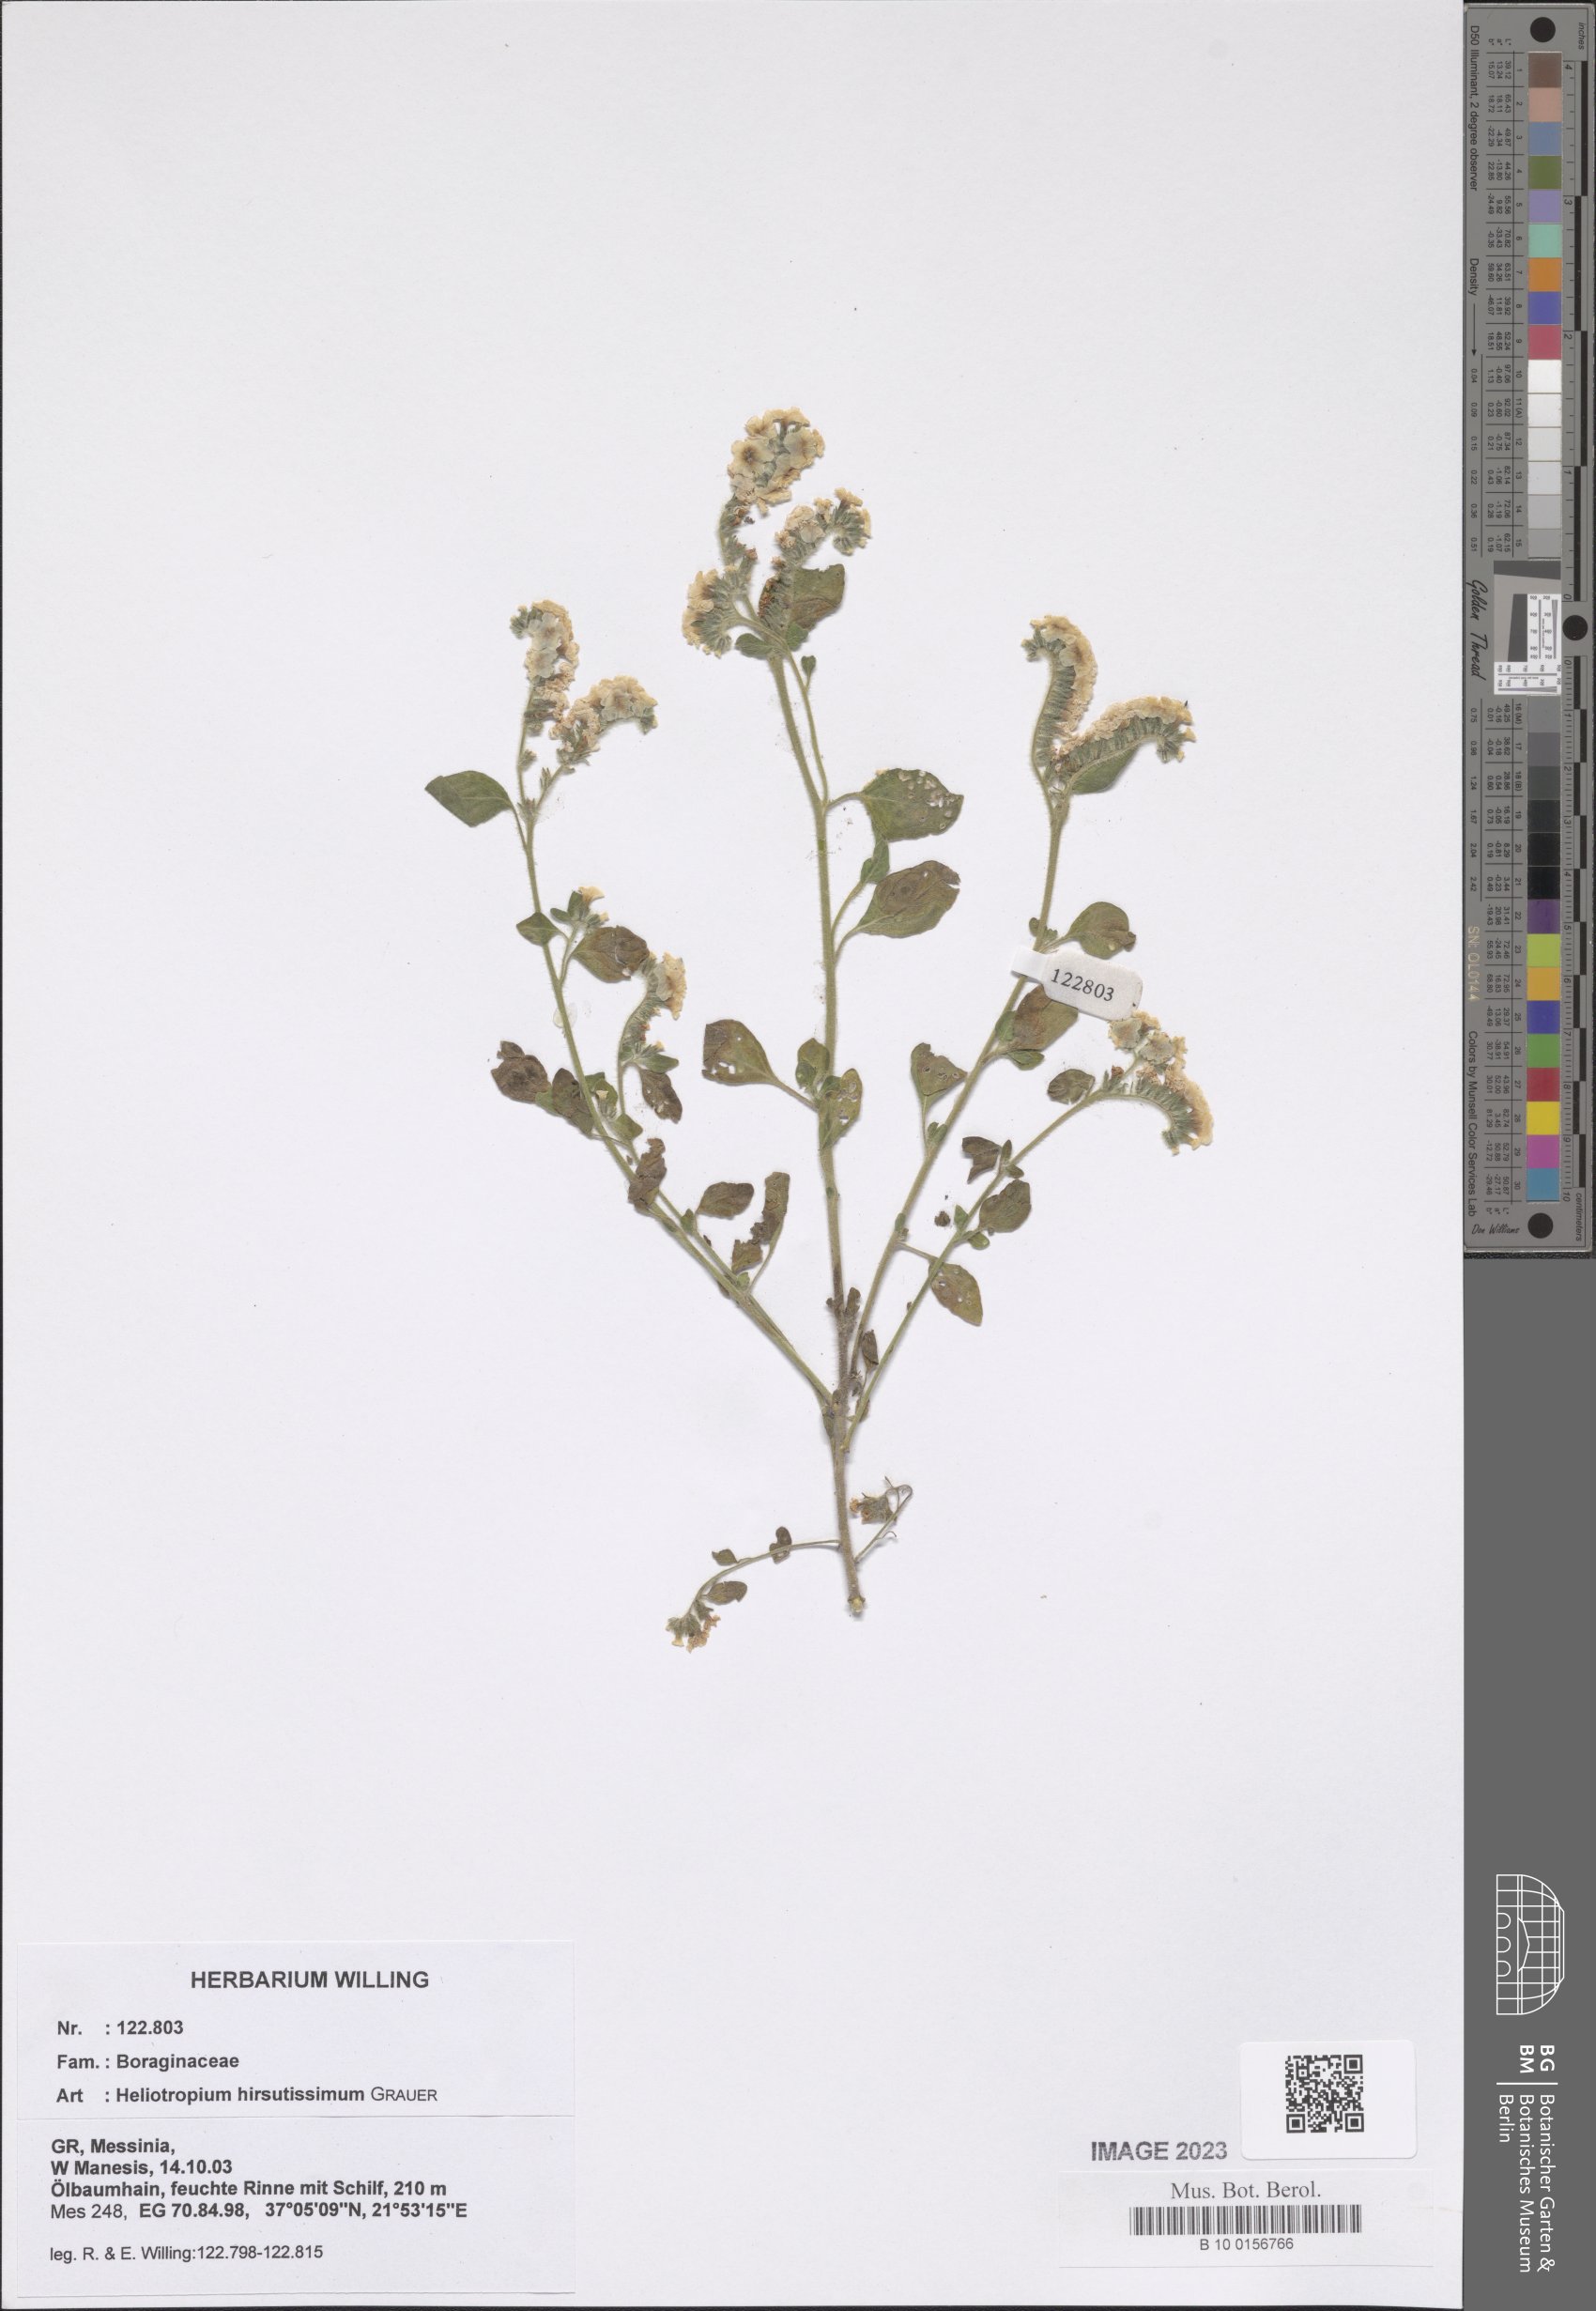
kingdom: Plantae
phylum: Tracheophyta
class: Magnoliopsida
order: Boraginales
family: Heliotropiaceae
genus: Heliotropium
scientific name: Heliotropium hirsutissimum
